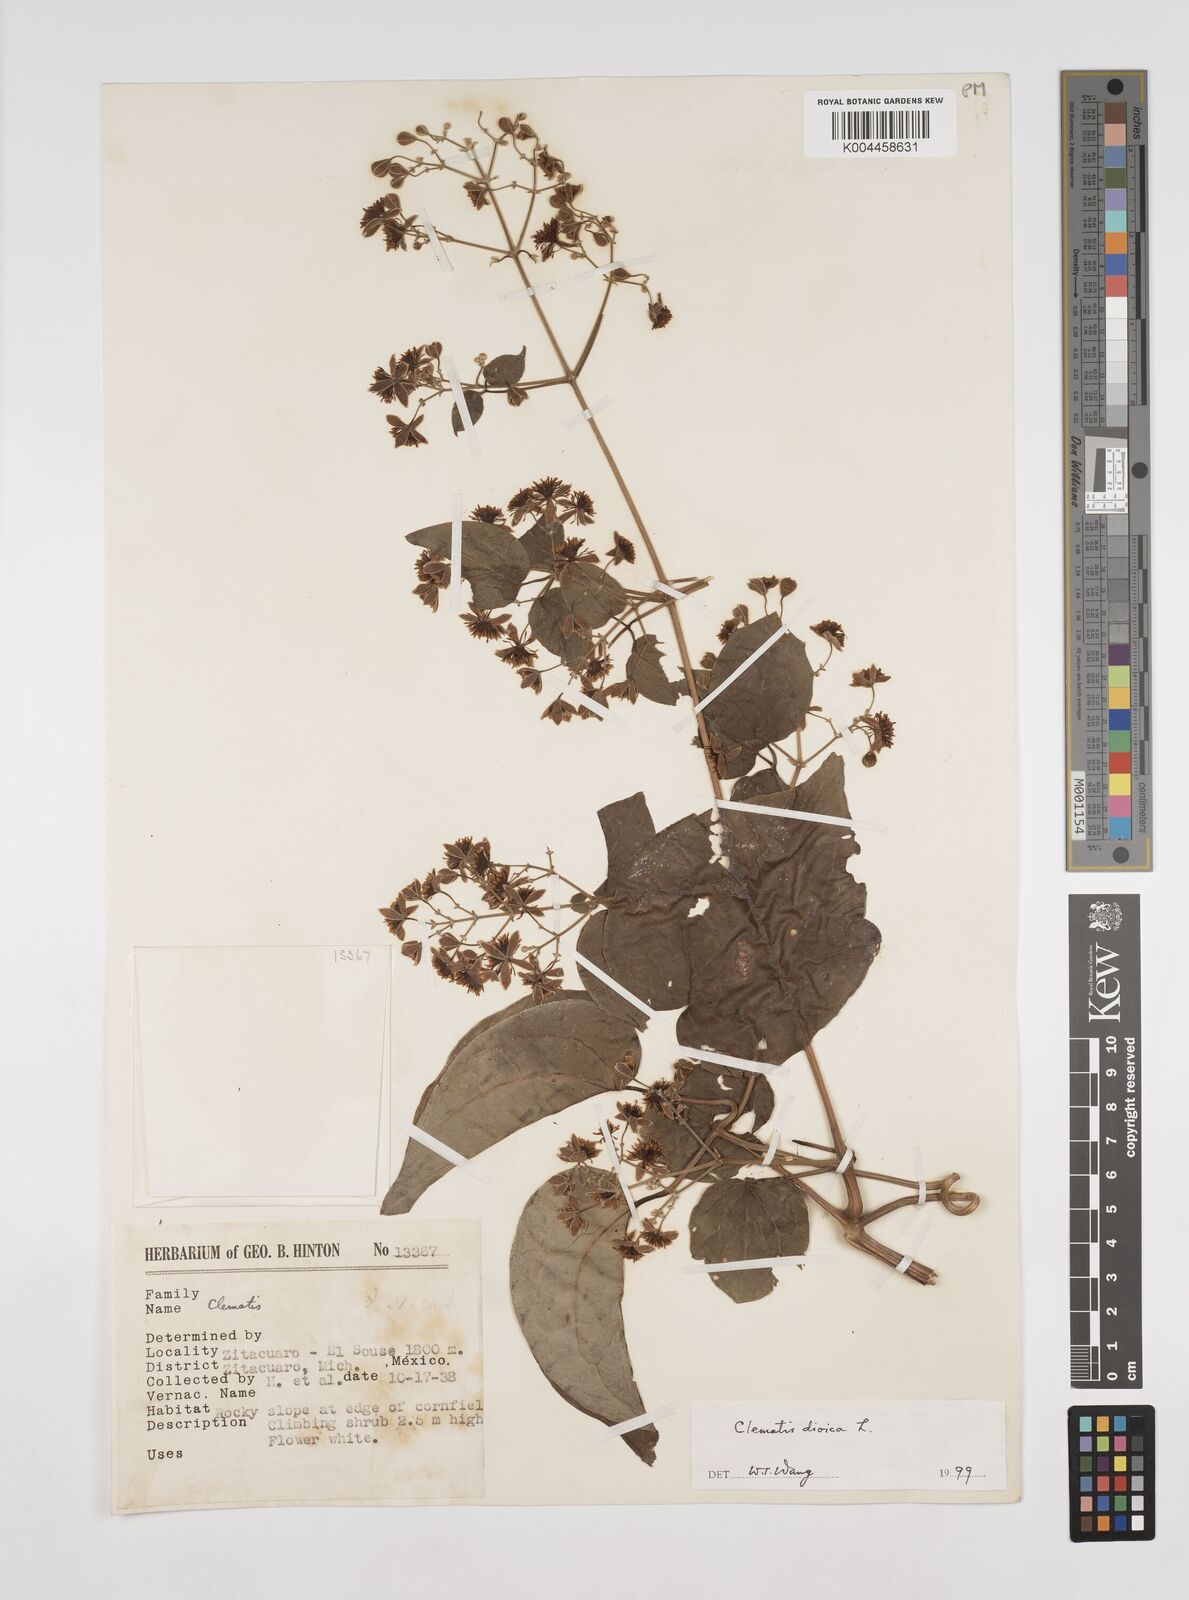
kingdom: Plantae
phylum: Tracheophyta
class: Magnoliopsida
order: Ranunculales
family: Ranunculaceae
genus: Clematis
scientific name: Clematis dioica
